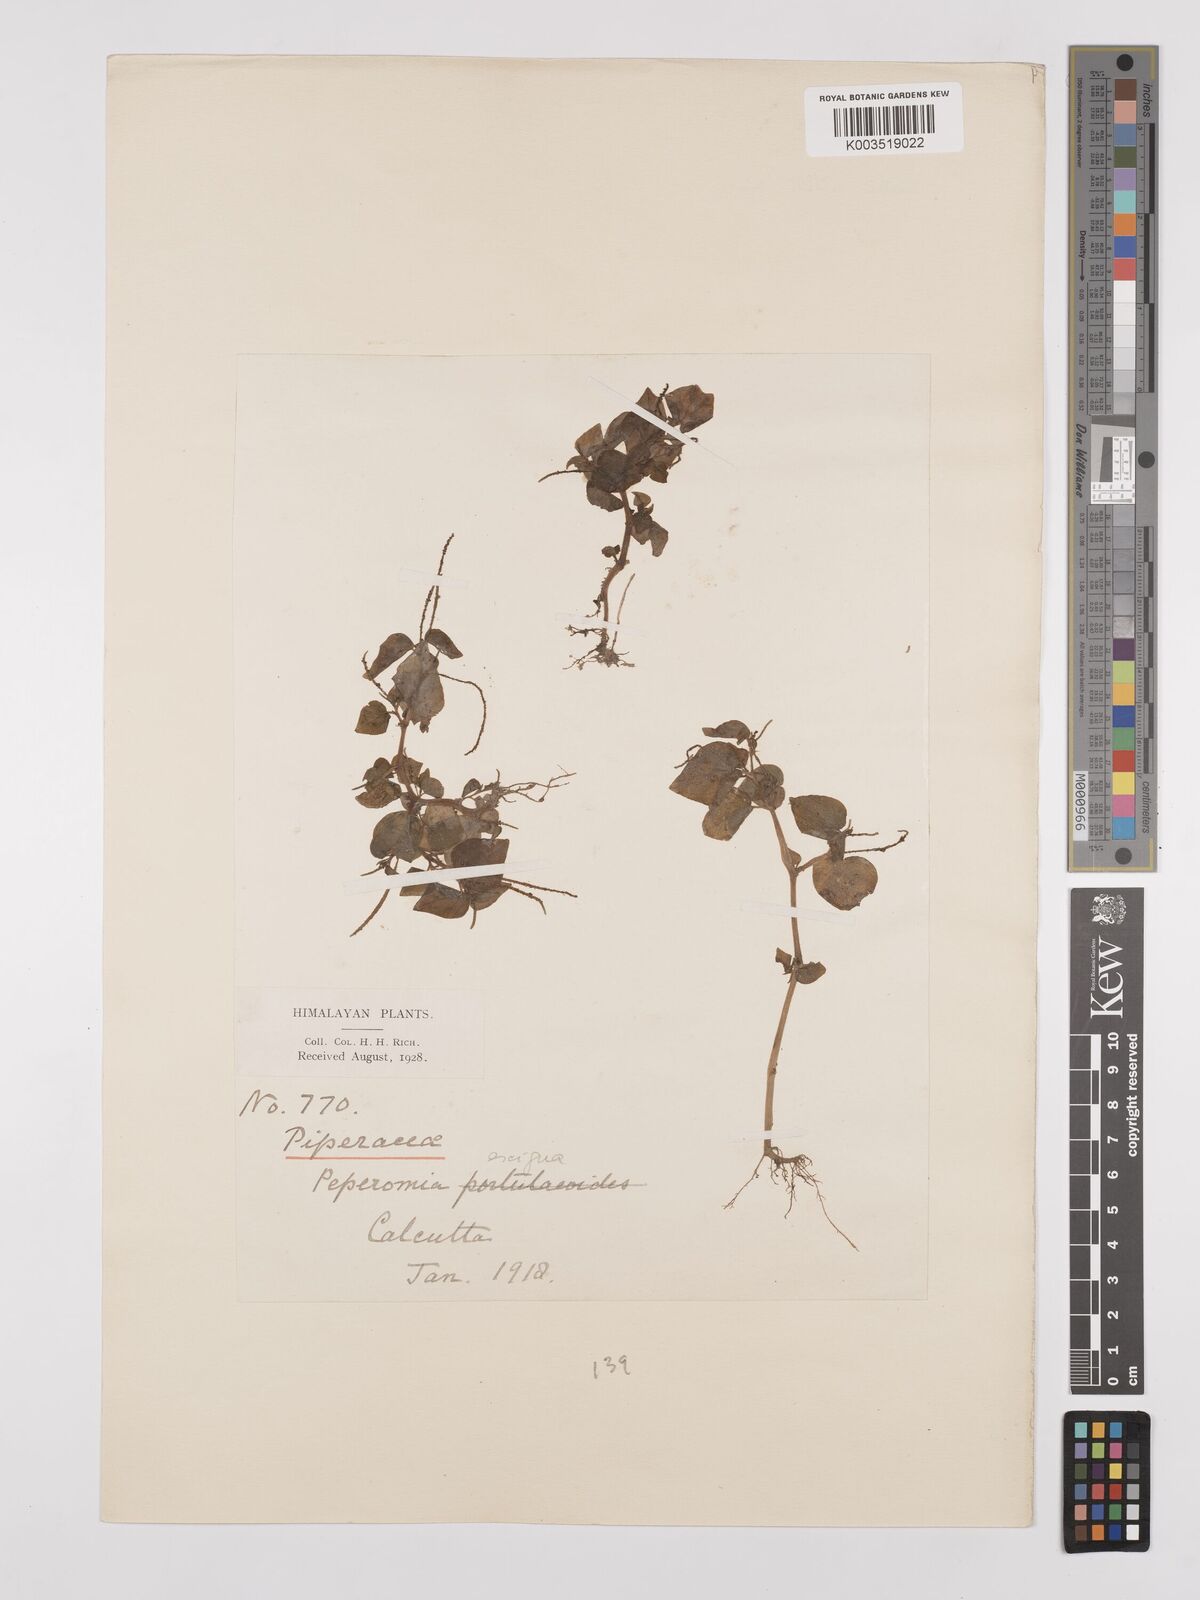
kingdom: Plantae
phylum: Tracheophyta
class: Magnoliopsida
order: Piperales
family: Piperaceae
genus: Peperomia
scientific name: Peperomia pellucida
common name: Man to man
